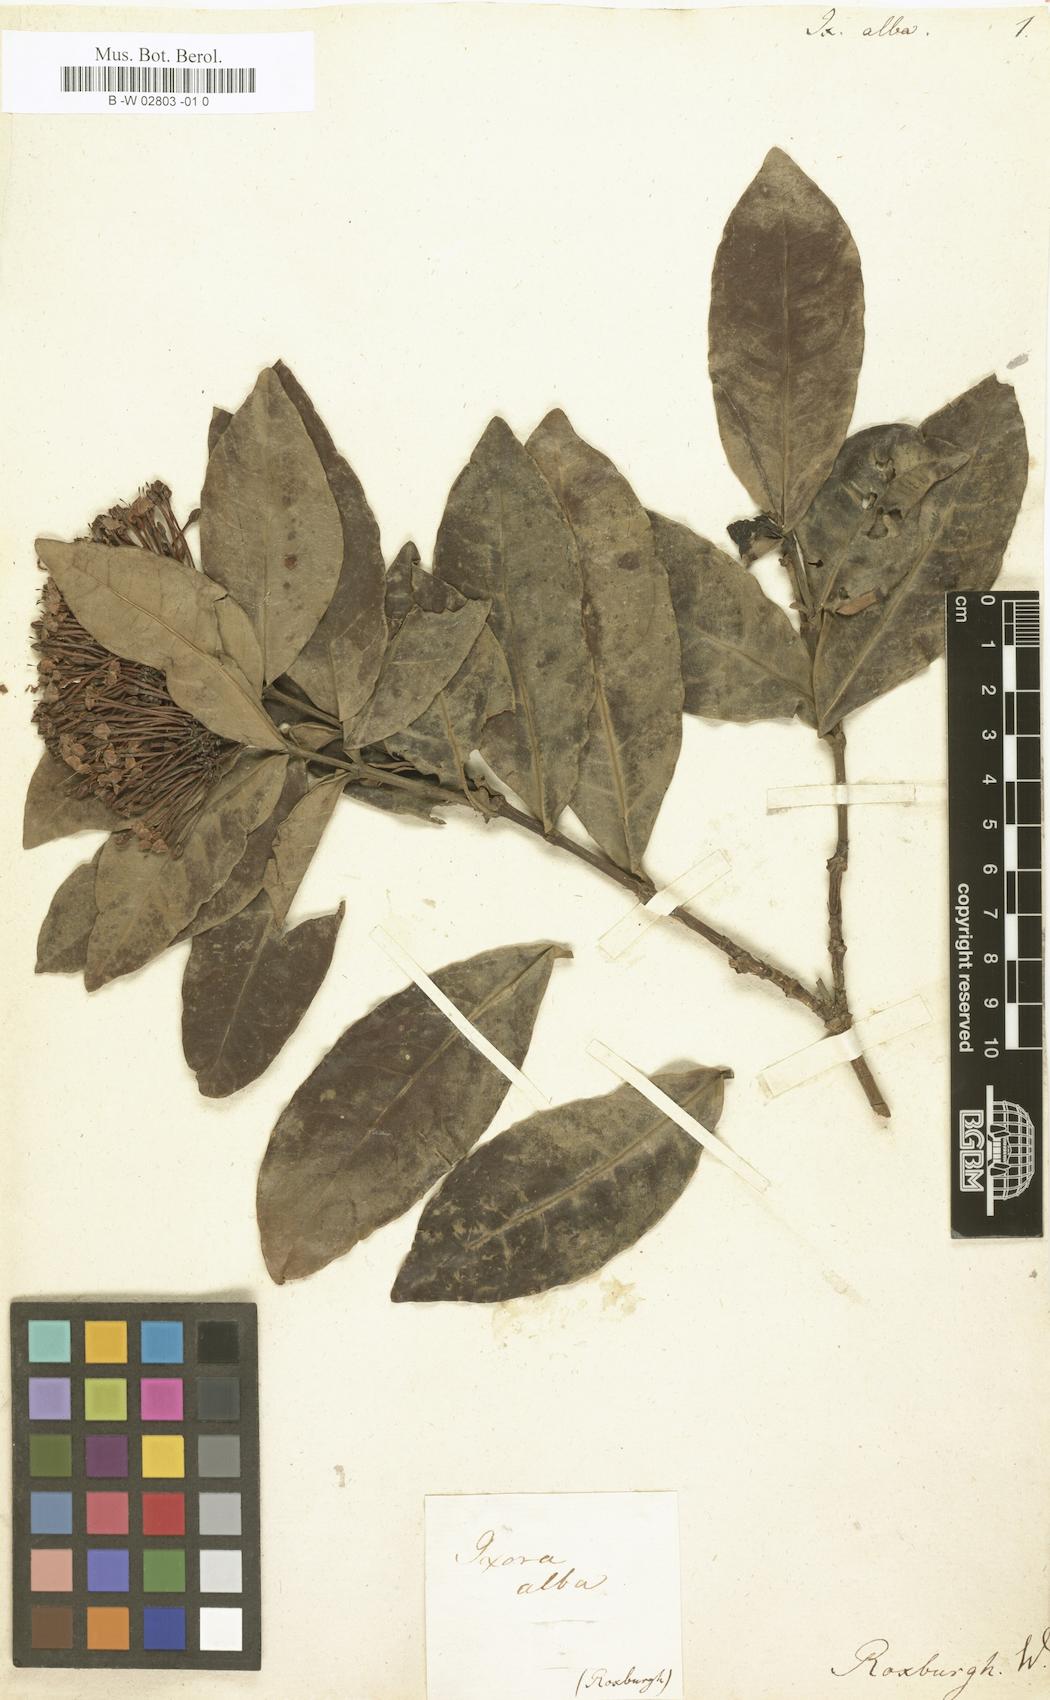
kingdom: Plantae
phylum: Tracheophyta
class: Magnoliopsida
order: Gentianales
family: Rubiaceae
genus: Ixora
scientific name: Ixora alba
